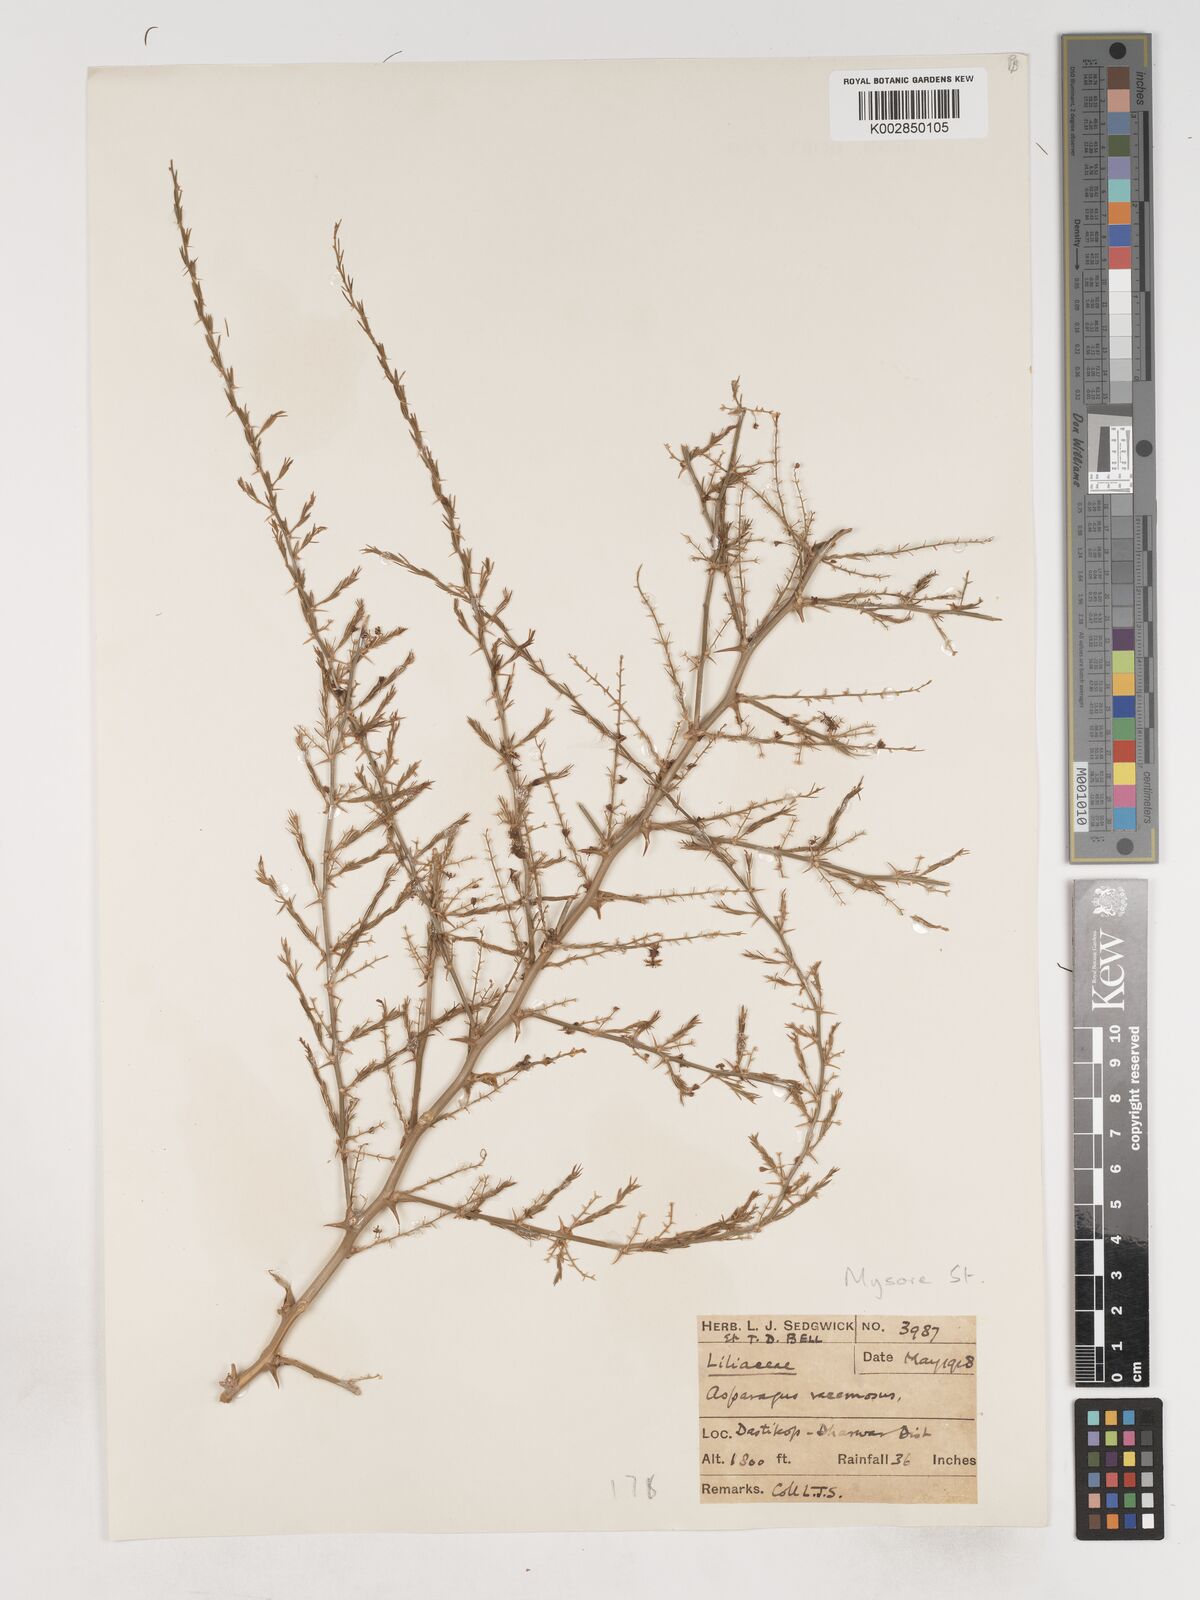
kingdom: Plantae
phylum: Tracheophyta
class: Liliopsida
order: Asparagales
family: Asparagaceae
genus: Asparagus
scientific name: Asparagus racemosus
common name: Asparagus-fern
